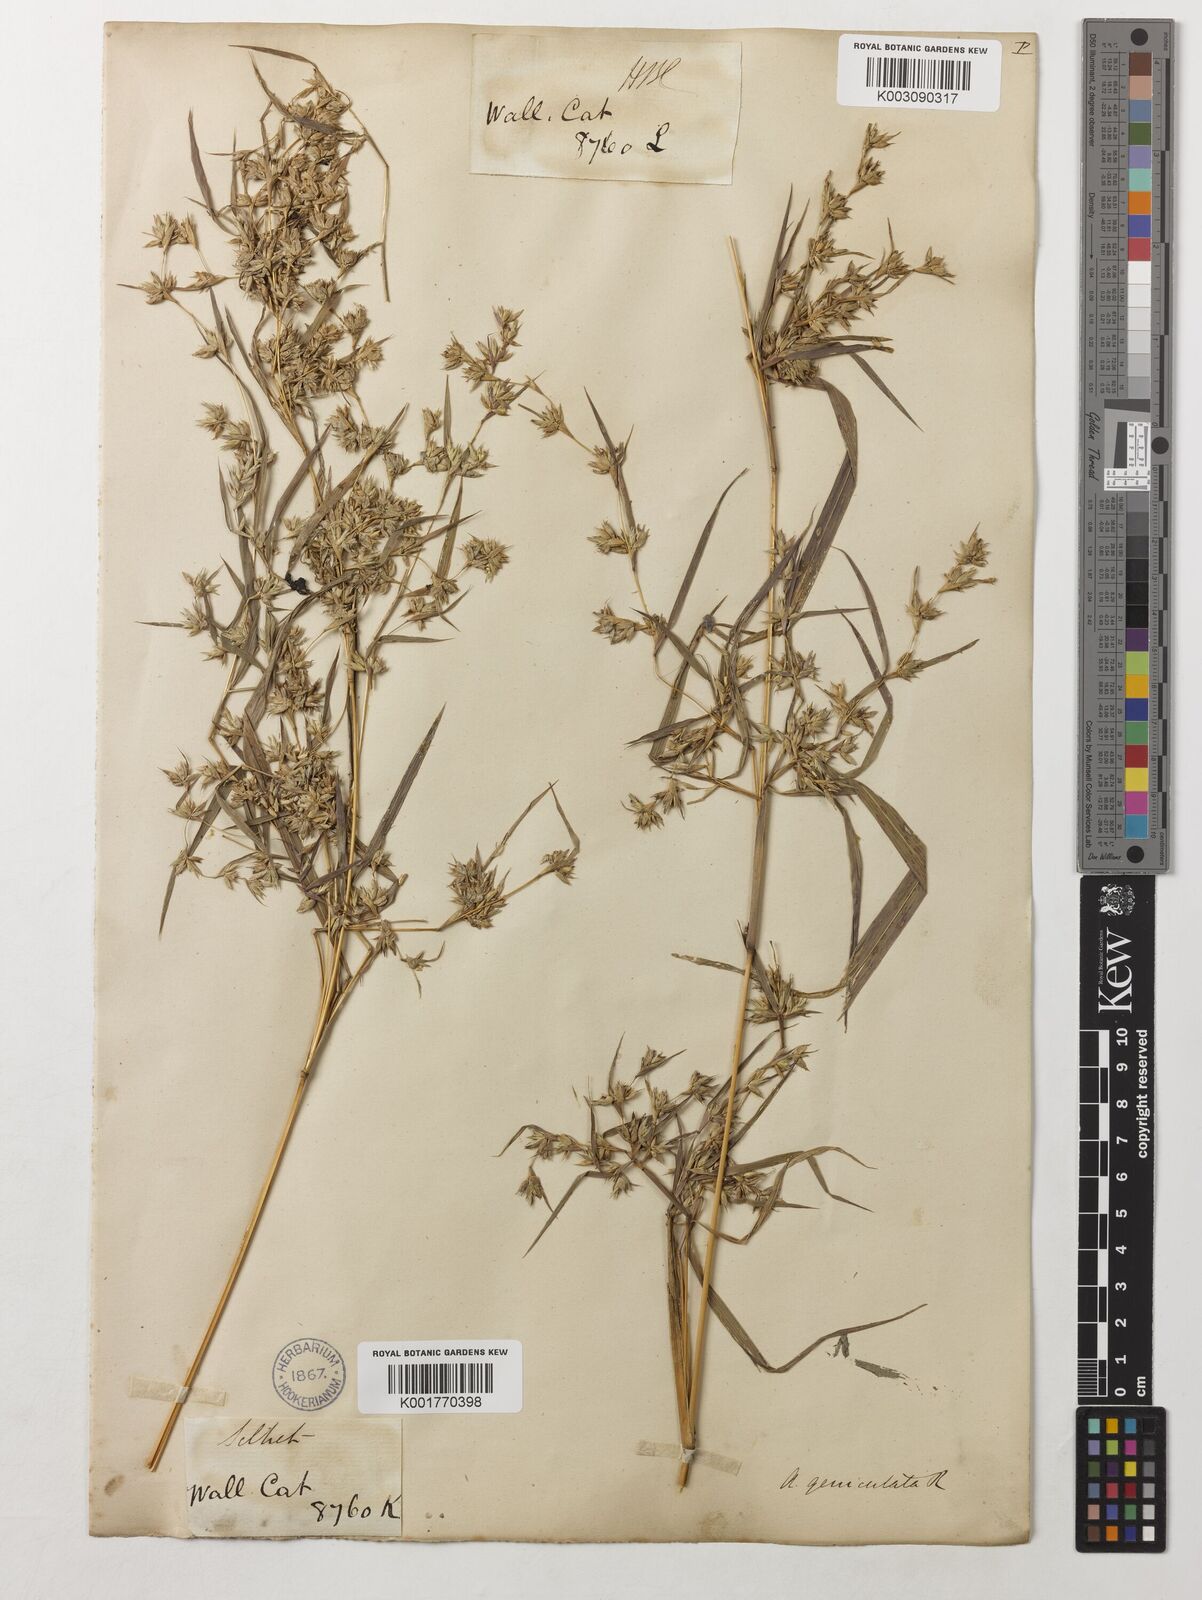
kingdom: Plantae
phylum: Tracheophyta
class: Liliopsida
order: Poales
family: Poaceae
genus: Apluda
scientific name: Apluda mutica
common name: Mauritian grass
